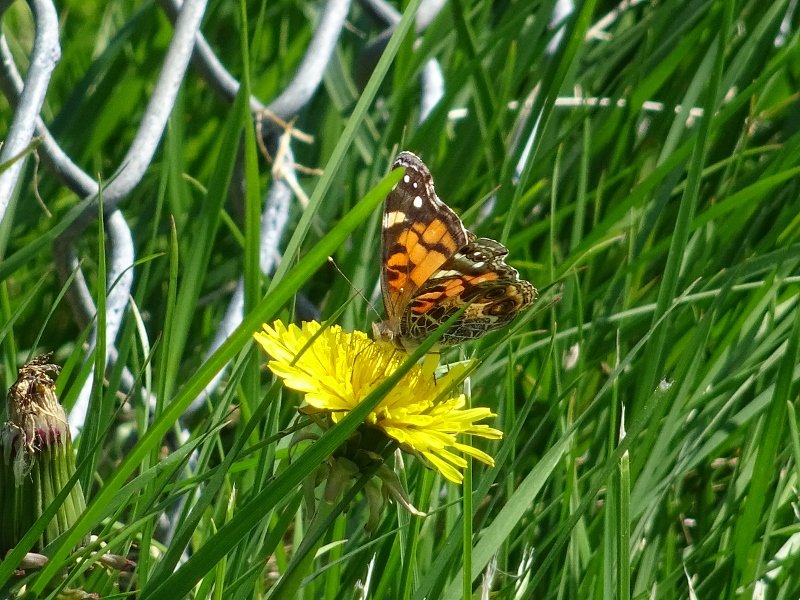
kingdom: Animalia
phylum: Arthropoda
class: Insecta
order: Lepidoptera
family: Nymphalidae
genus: Vanessa
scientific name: Vanessa virginiensis
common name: American Lady
